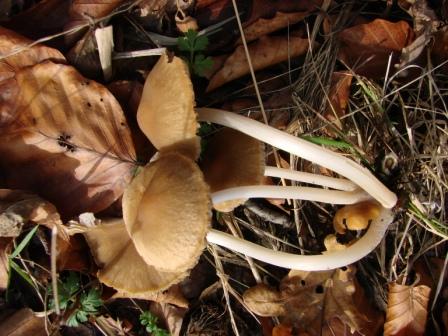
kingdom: Fungi
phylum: Basidiomycota
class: Agaricomycetes
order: Agaricales
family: Psathyrellaceae
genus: Psathyrella
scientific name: Psathyrella pseudogracilis
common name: slank mørkhat
